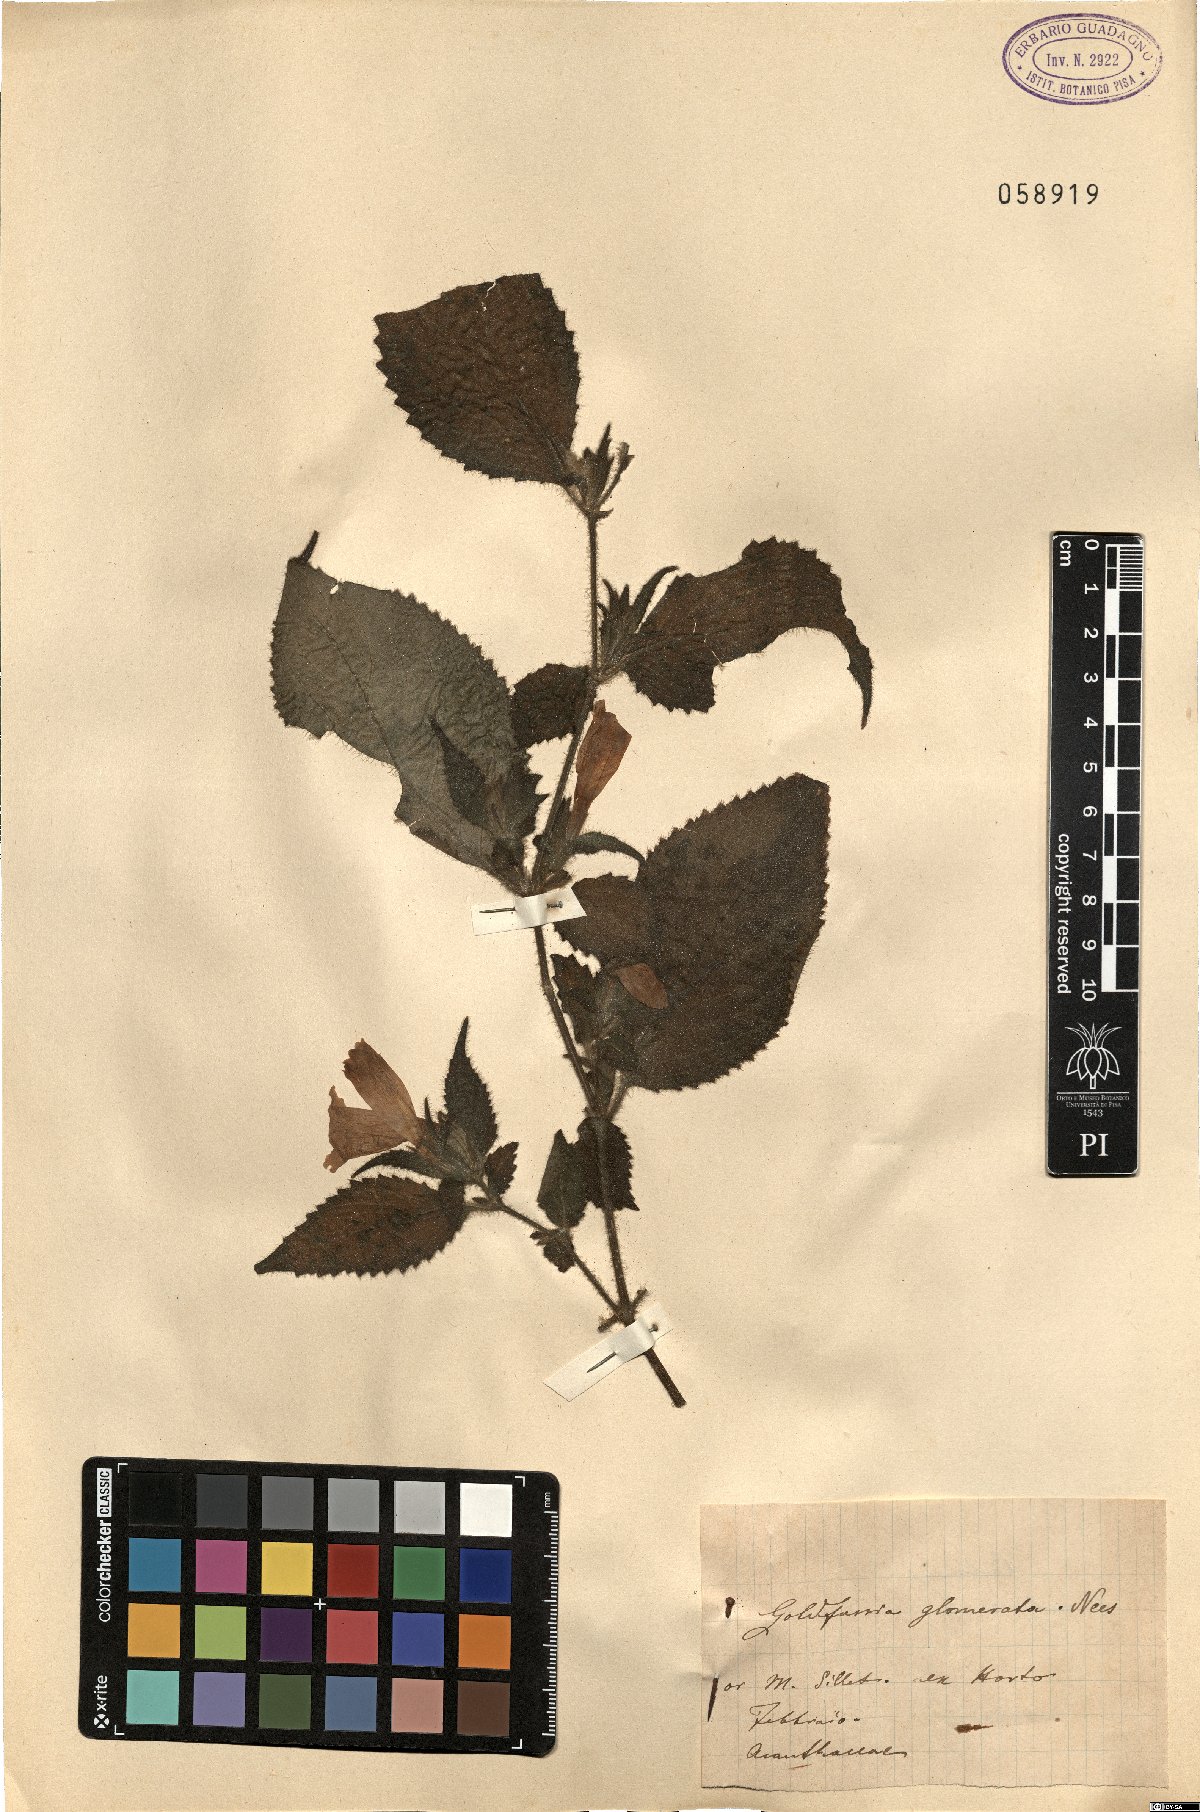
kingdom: Plantae
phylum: Tracheophyta
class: Magnoliopsida
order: Lamiales
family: Acanthaceae
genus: Strobilanthes
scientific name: Strobilanthes glomerata
